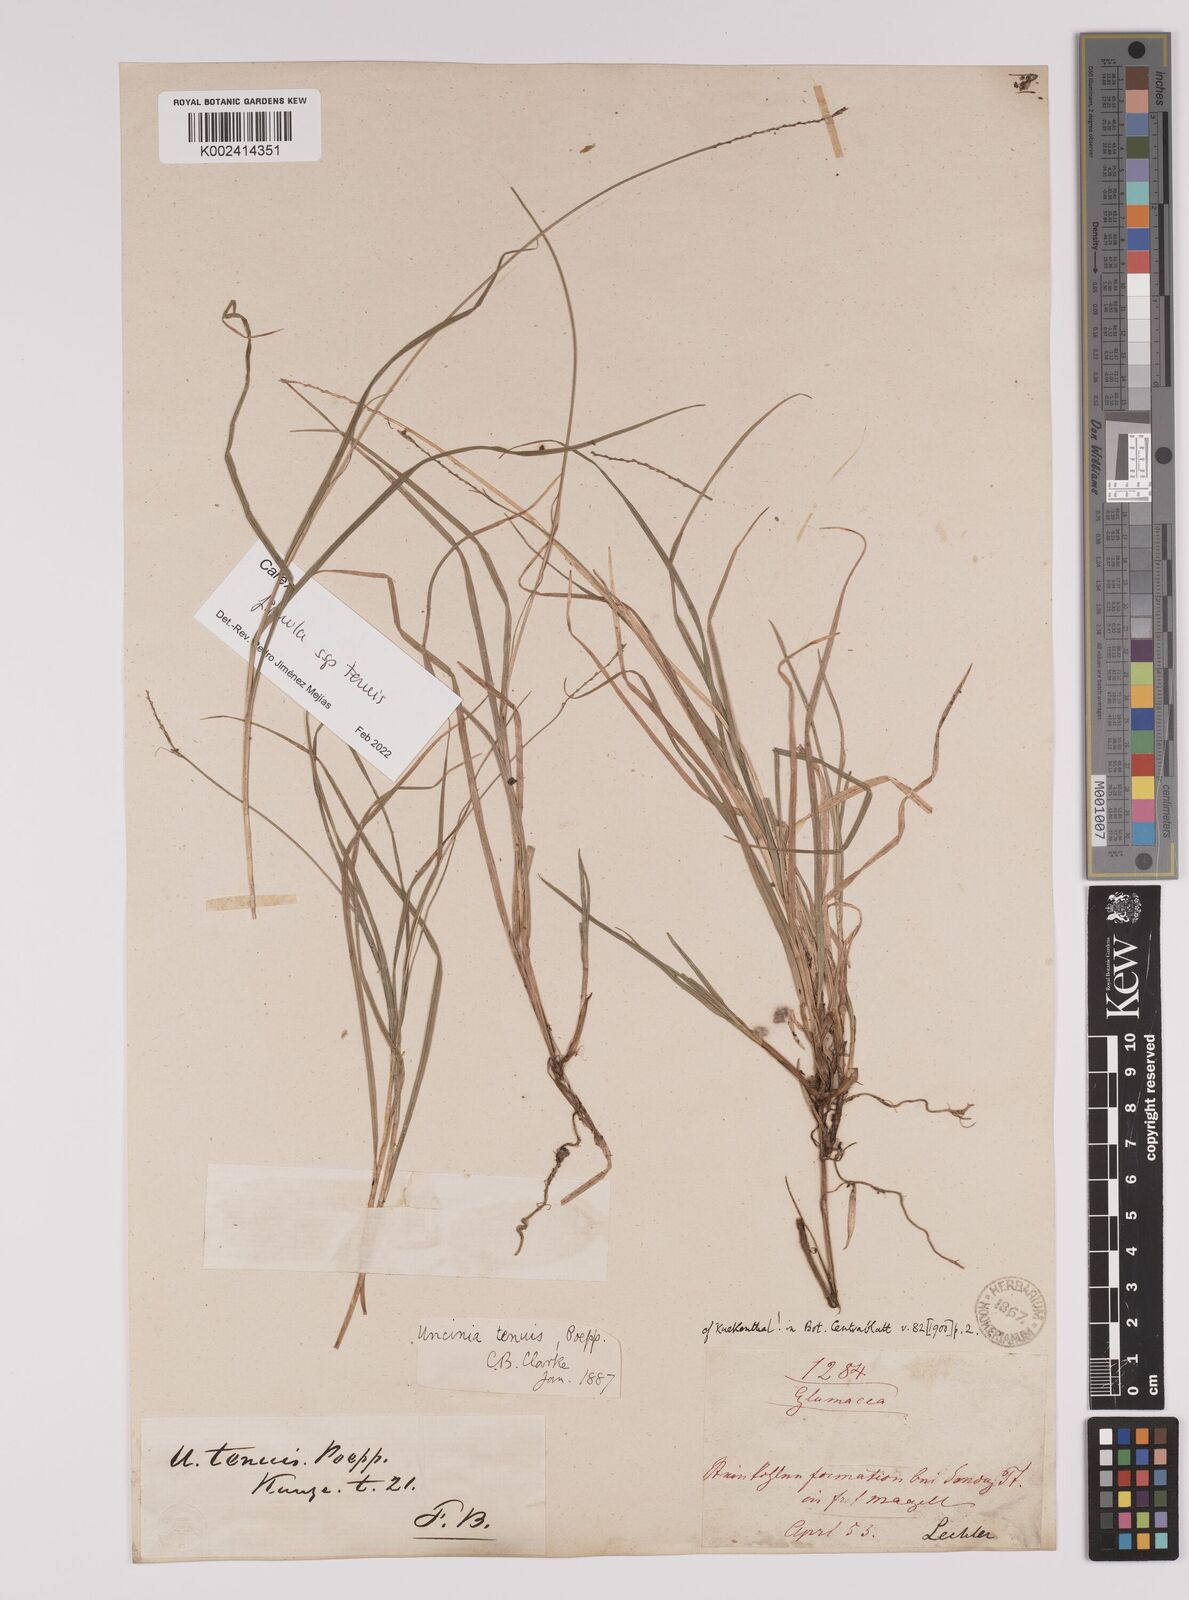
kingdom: Plantae
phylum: Tracheophyta
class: Liliopsida
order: Poales
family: Cyperaceae
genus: Carex
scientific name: Carex firmula
